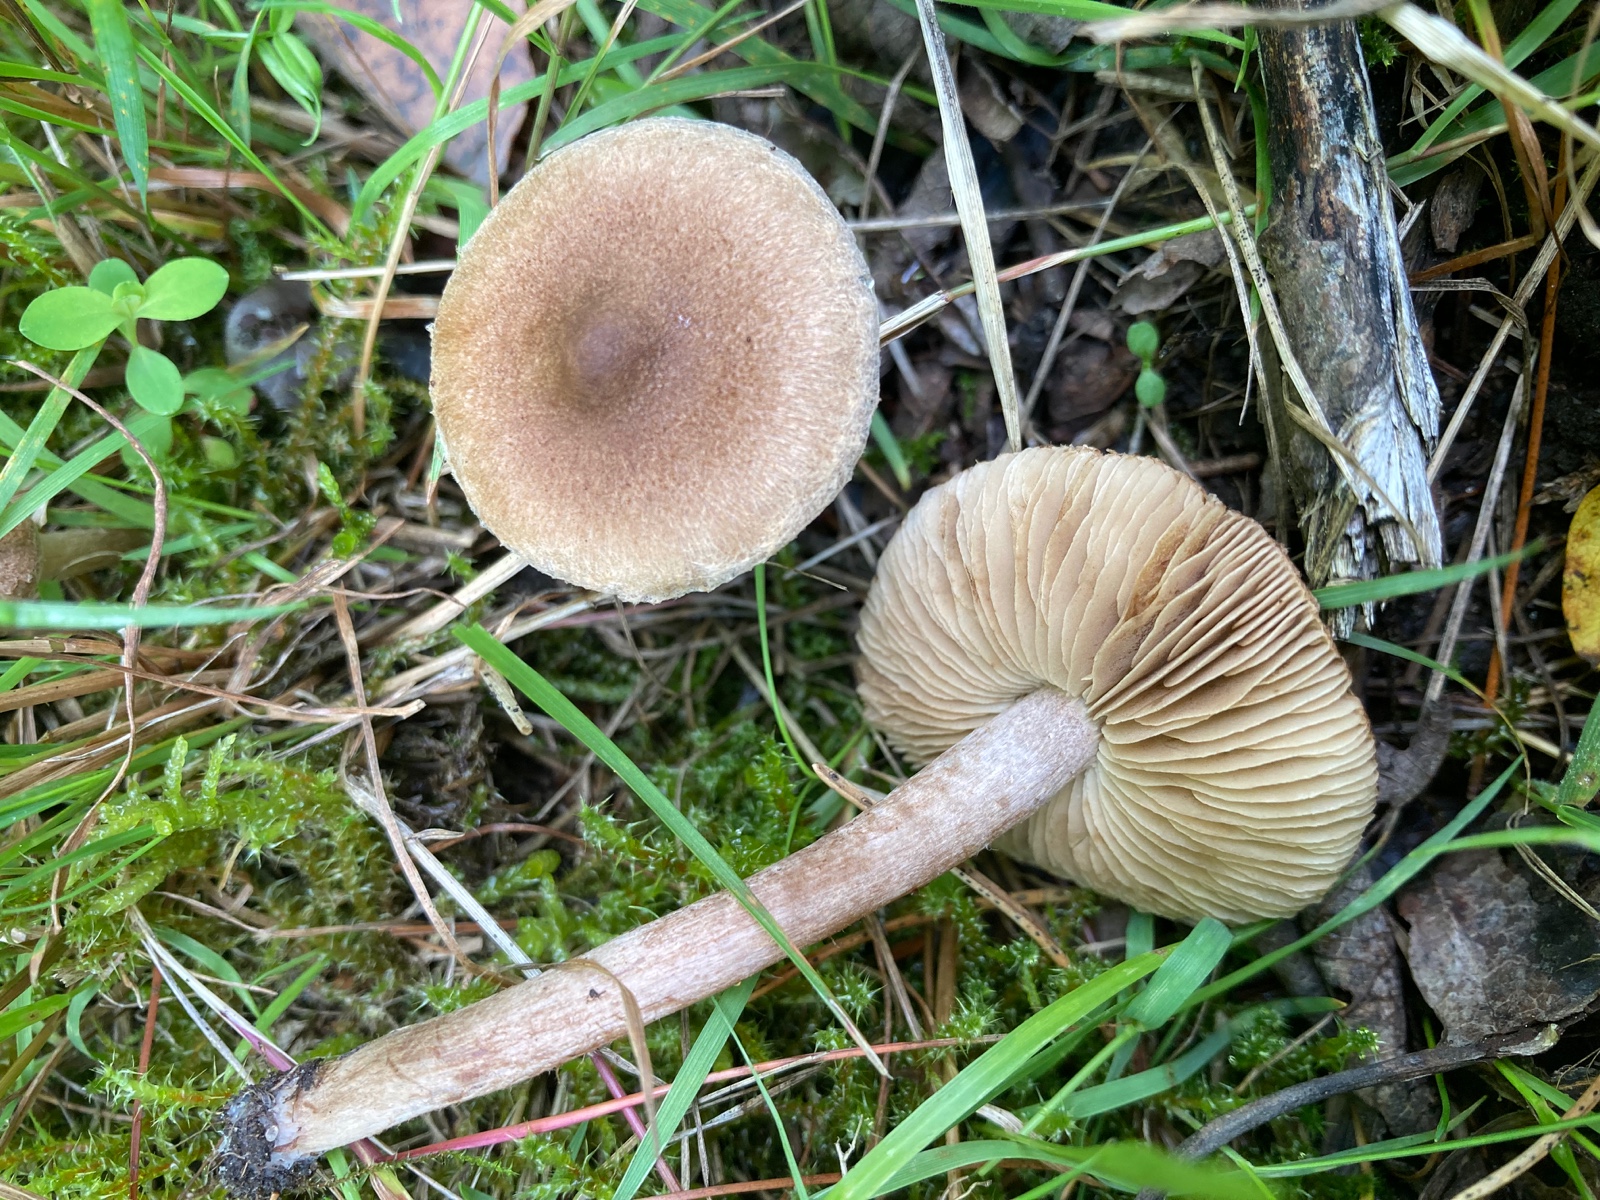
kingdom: Fungi
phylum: Basidiomycota
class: Agaricomycetes
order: Agaricales
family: Inocybaceae
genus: Inocybe
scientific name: Inocybe
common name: trævlhat
